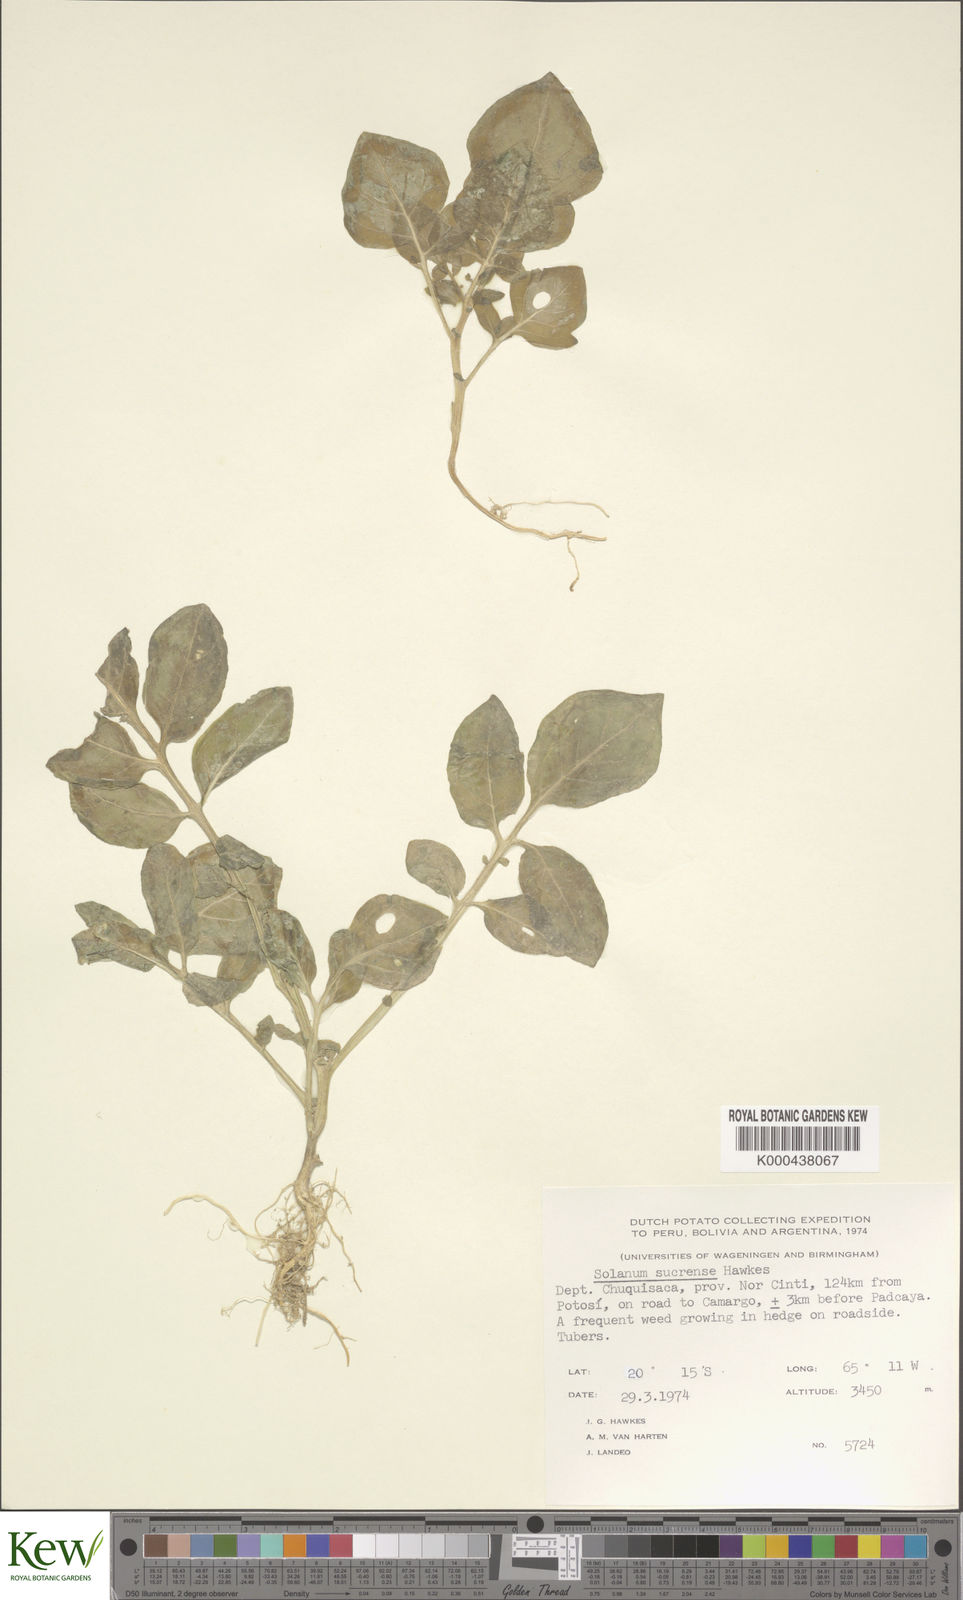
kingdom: Plantae
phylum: Tracheophyta
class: Magnoliopsida
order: Solanales
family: Solanaceae
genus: Solanum
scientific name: Solanum brevicaule
